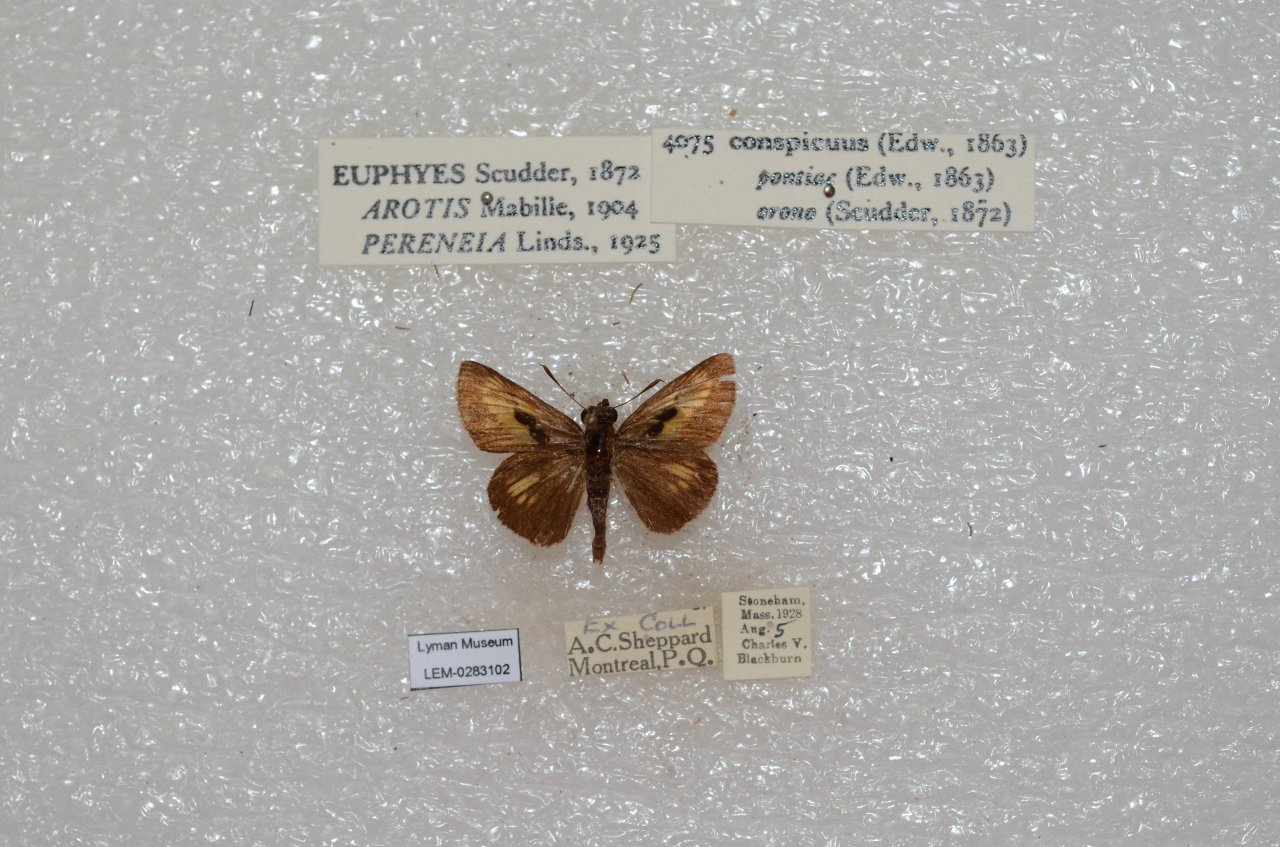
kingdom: Animalia
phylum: Arthropoda
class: Insecta
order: Lepidoptera
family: Hesperiidae
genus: Euphyes
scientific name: Euphyes conspicua
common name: Black Dash
